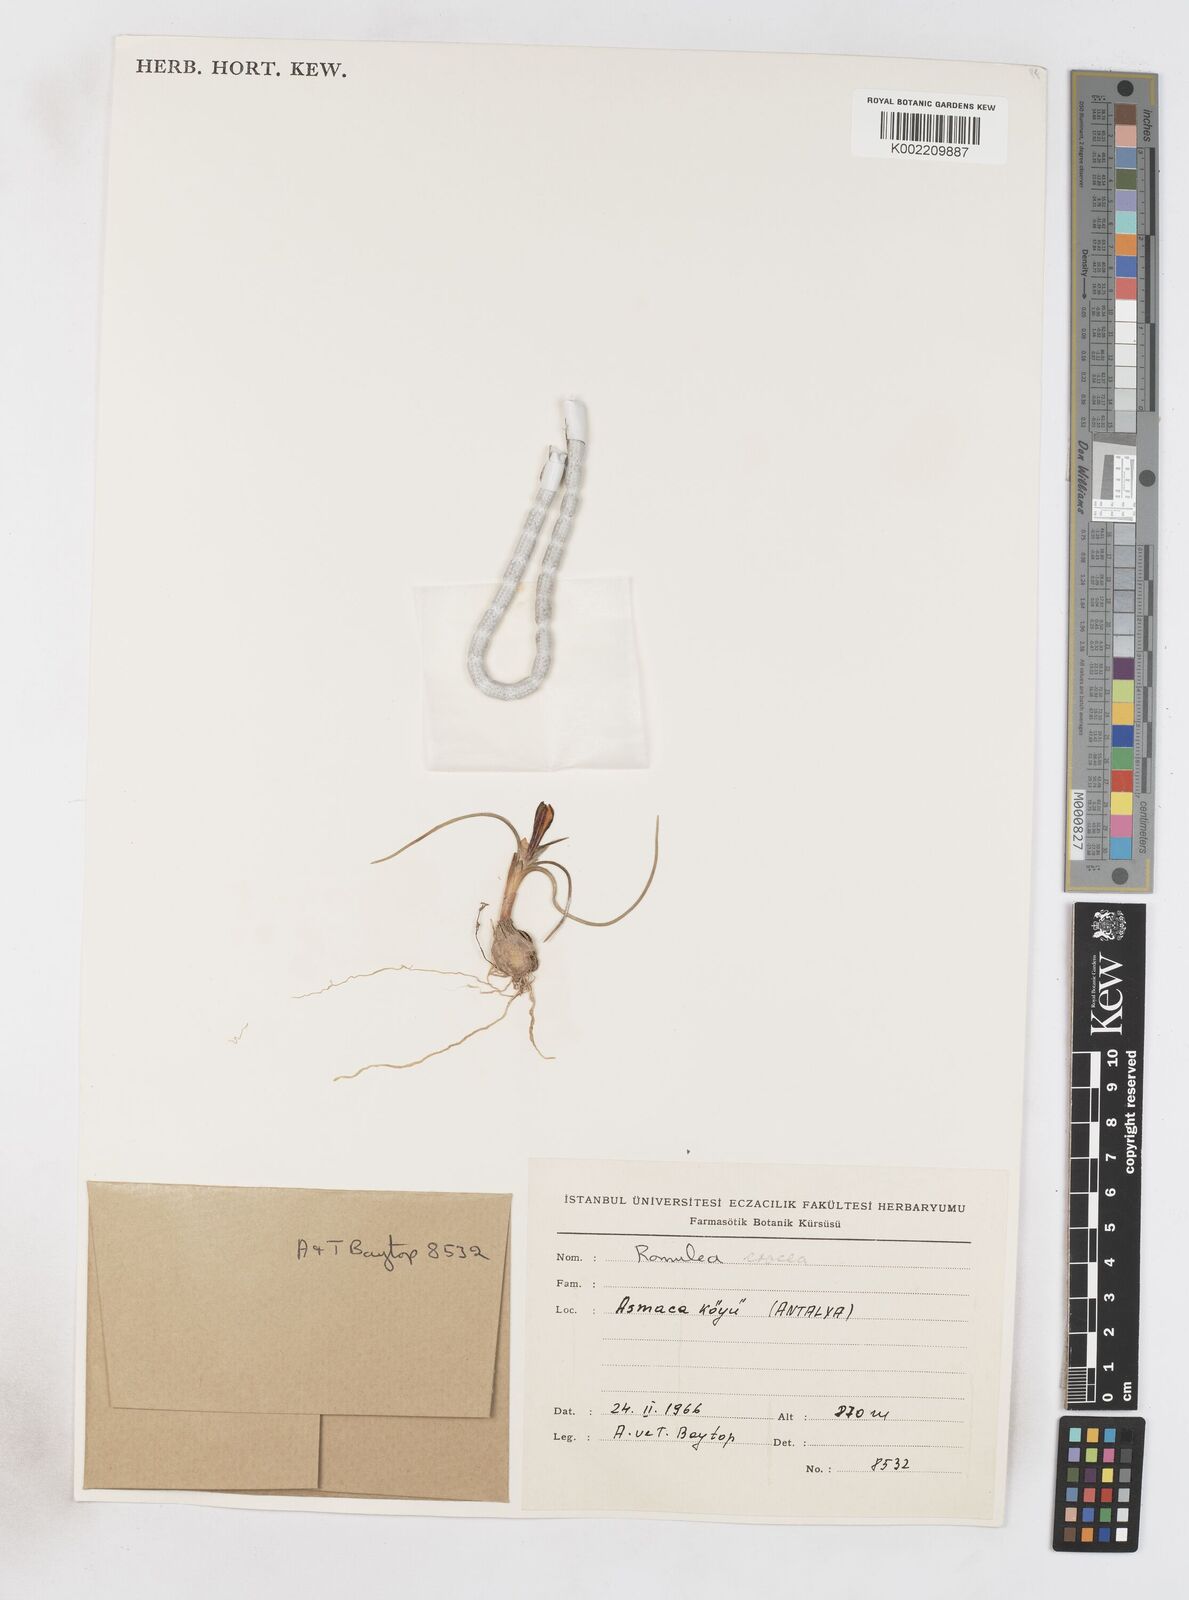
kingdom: Plantae
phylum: Tracheophyta
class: Liliopsida
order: Asparagales
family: Iridaceae
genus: Romulea
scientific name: Romulea bulbocodium
